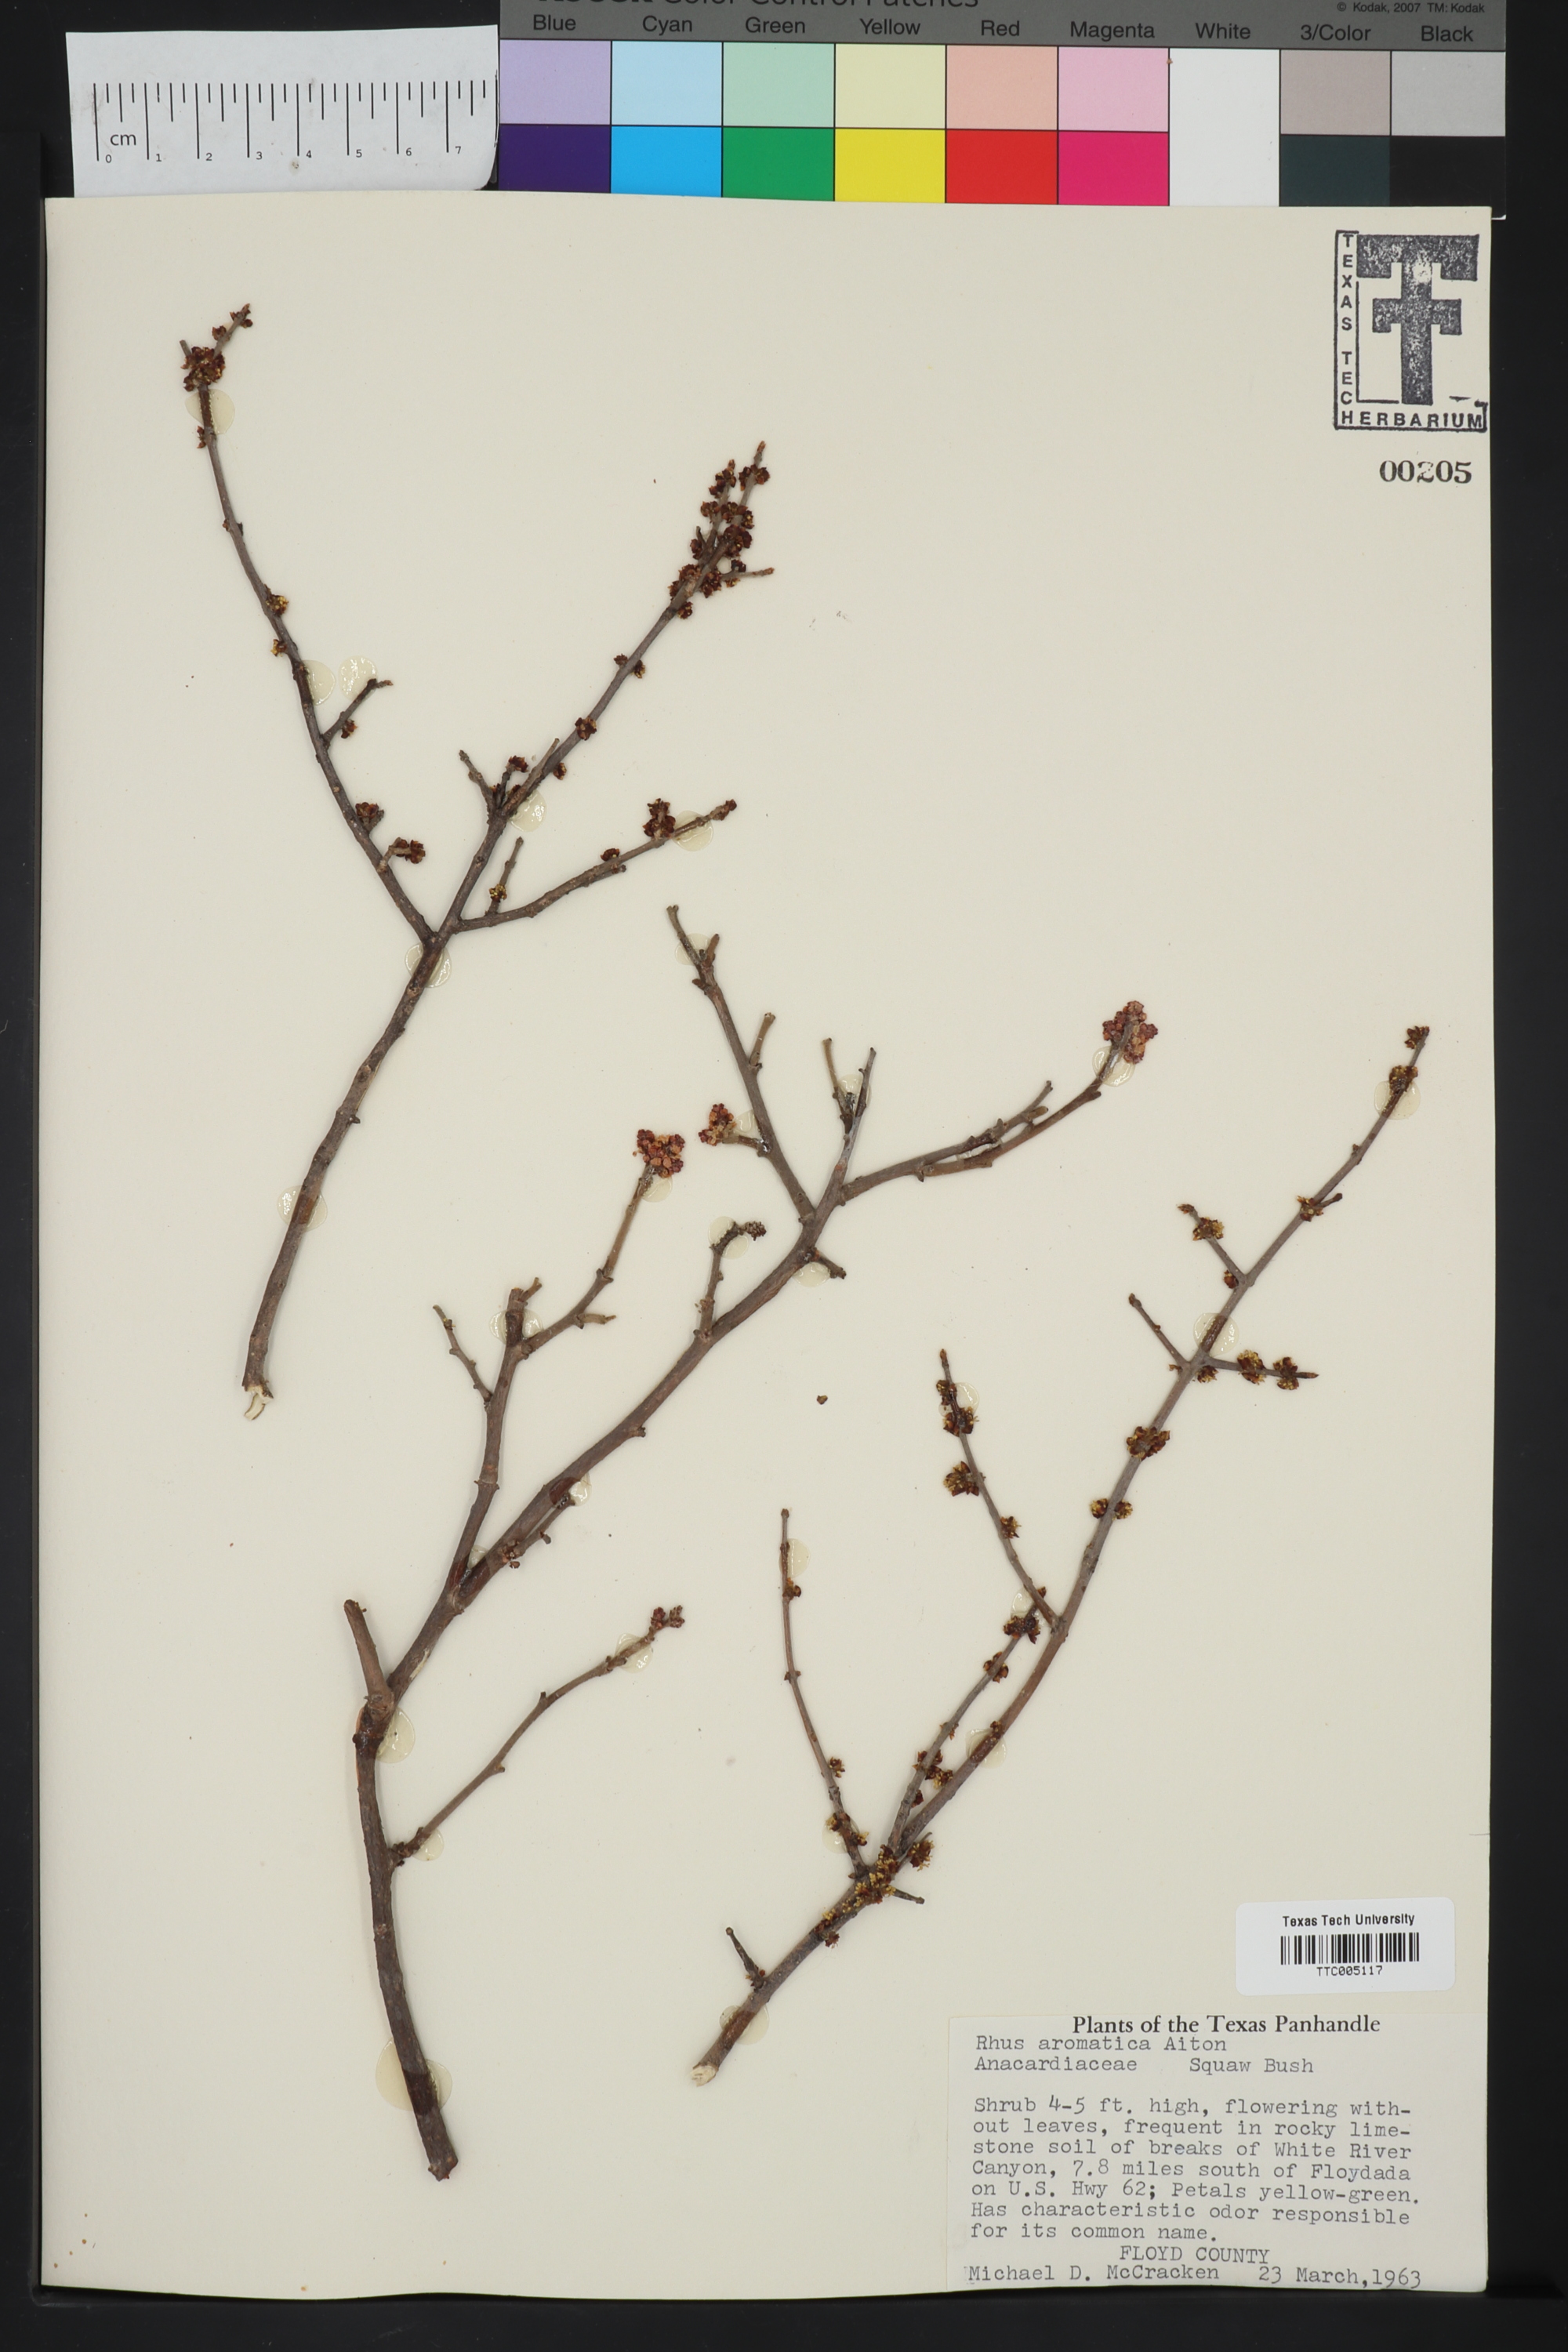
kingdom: Plantae
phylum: Tracheophyta
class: Magnoliopsida
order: Sapindales
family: Anacardiaceae
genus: Rhus
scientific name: Rhus aromatica
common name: Aromatic sumac
